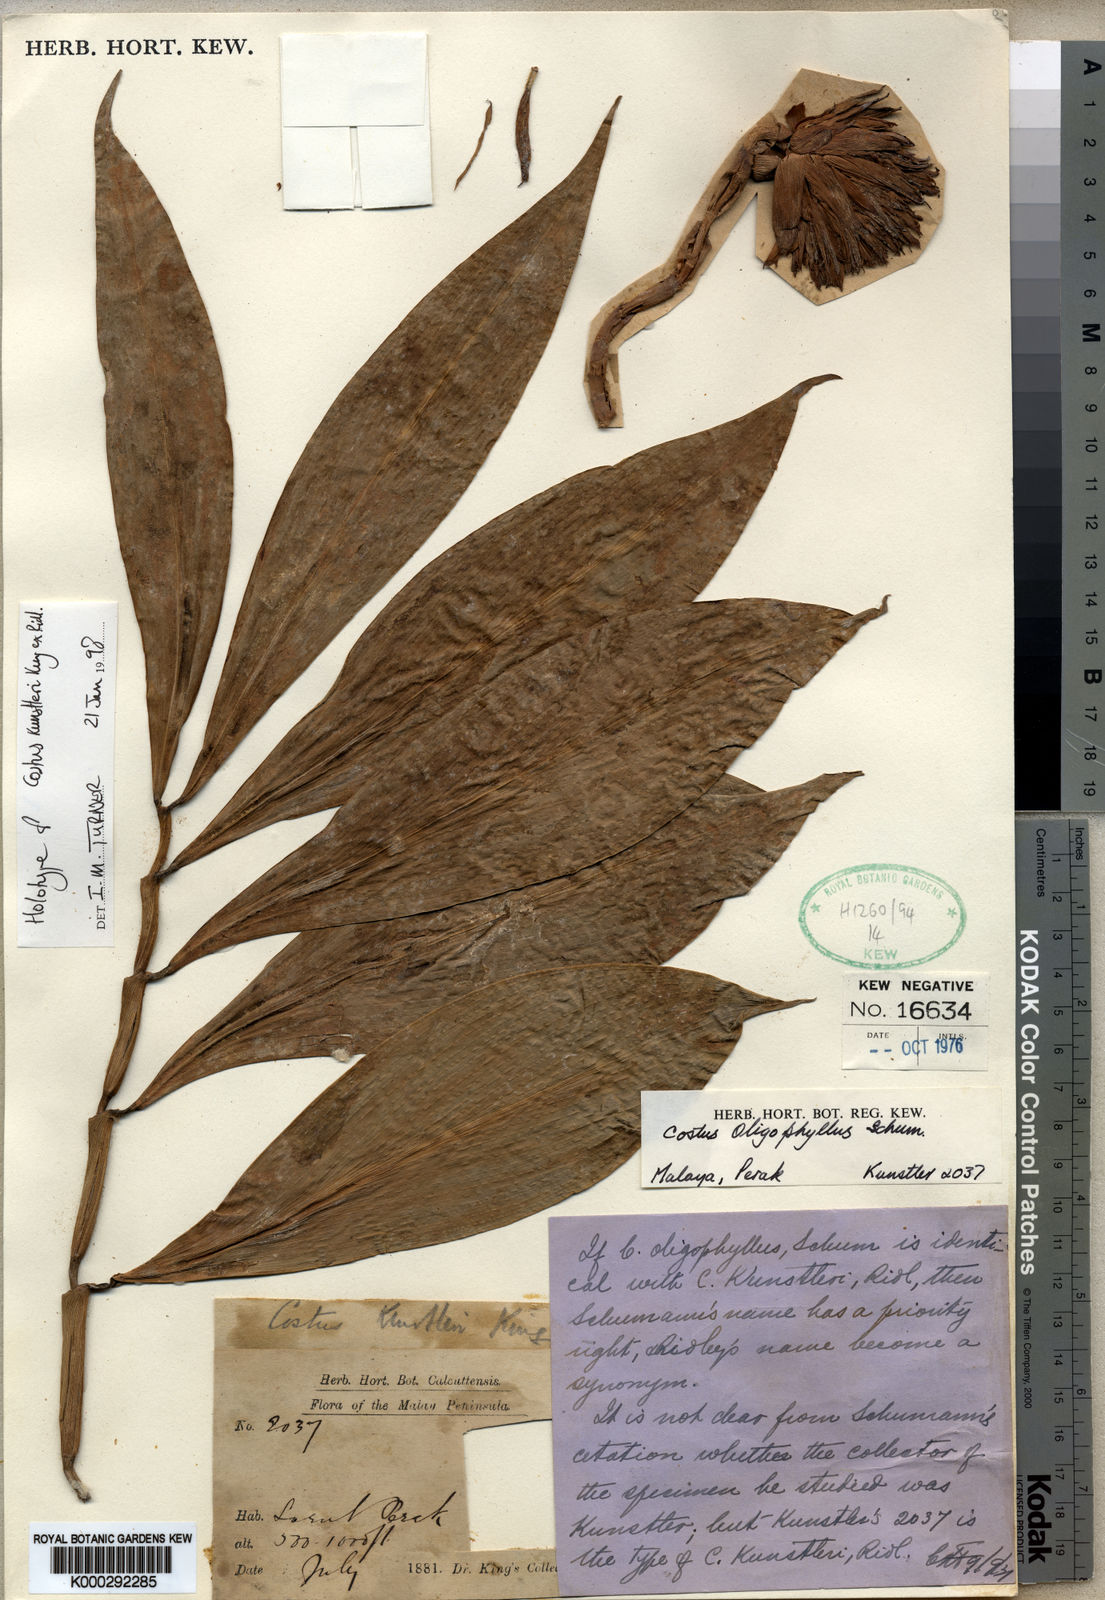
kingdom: Plantae
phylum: Tracheophyta
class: Liliopsida
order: Zingiberales
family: Costaceae
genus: Costus
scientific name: Costus oligophyllus
